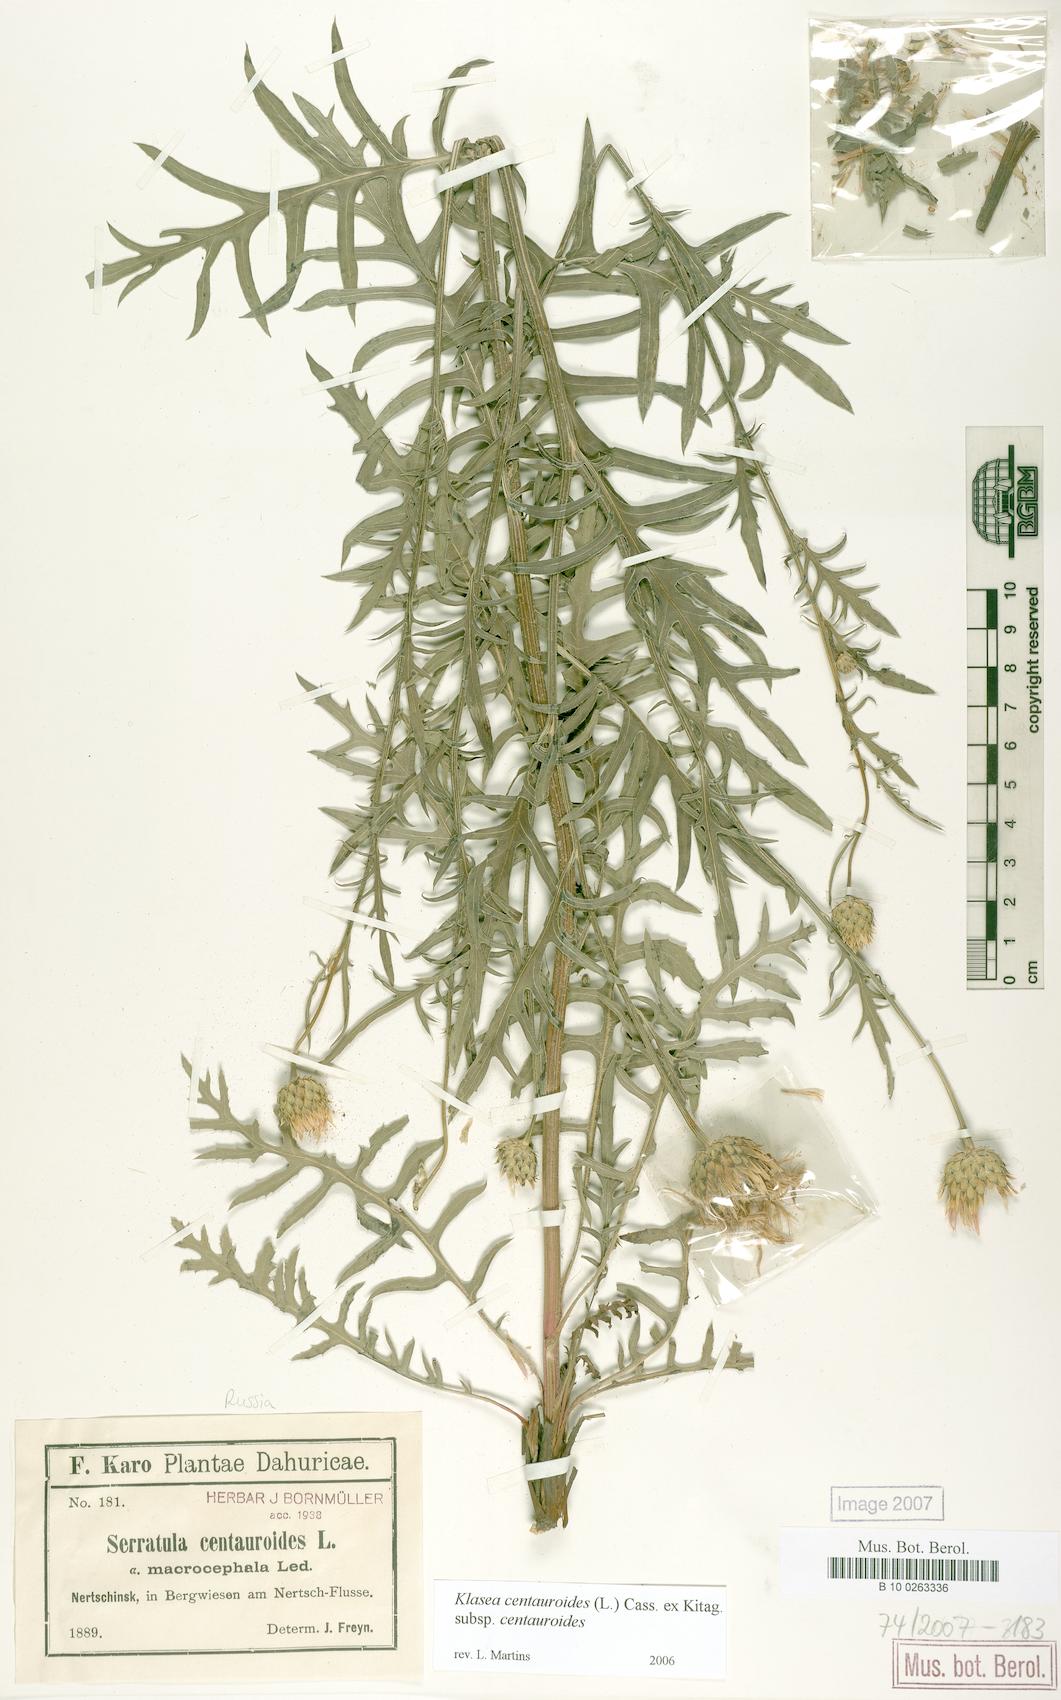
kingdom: Plantae
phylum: Tracheophyta
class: Magnoliopsida
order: Asterales
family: Asteraceae
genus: Klasea
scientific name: Klasea centauroides
